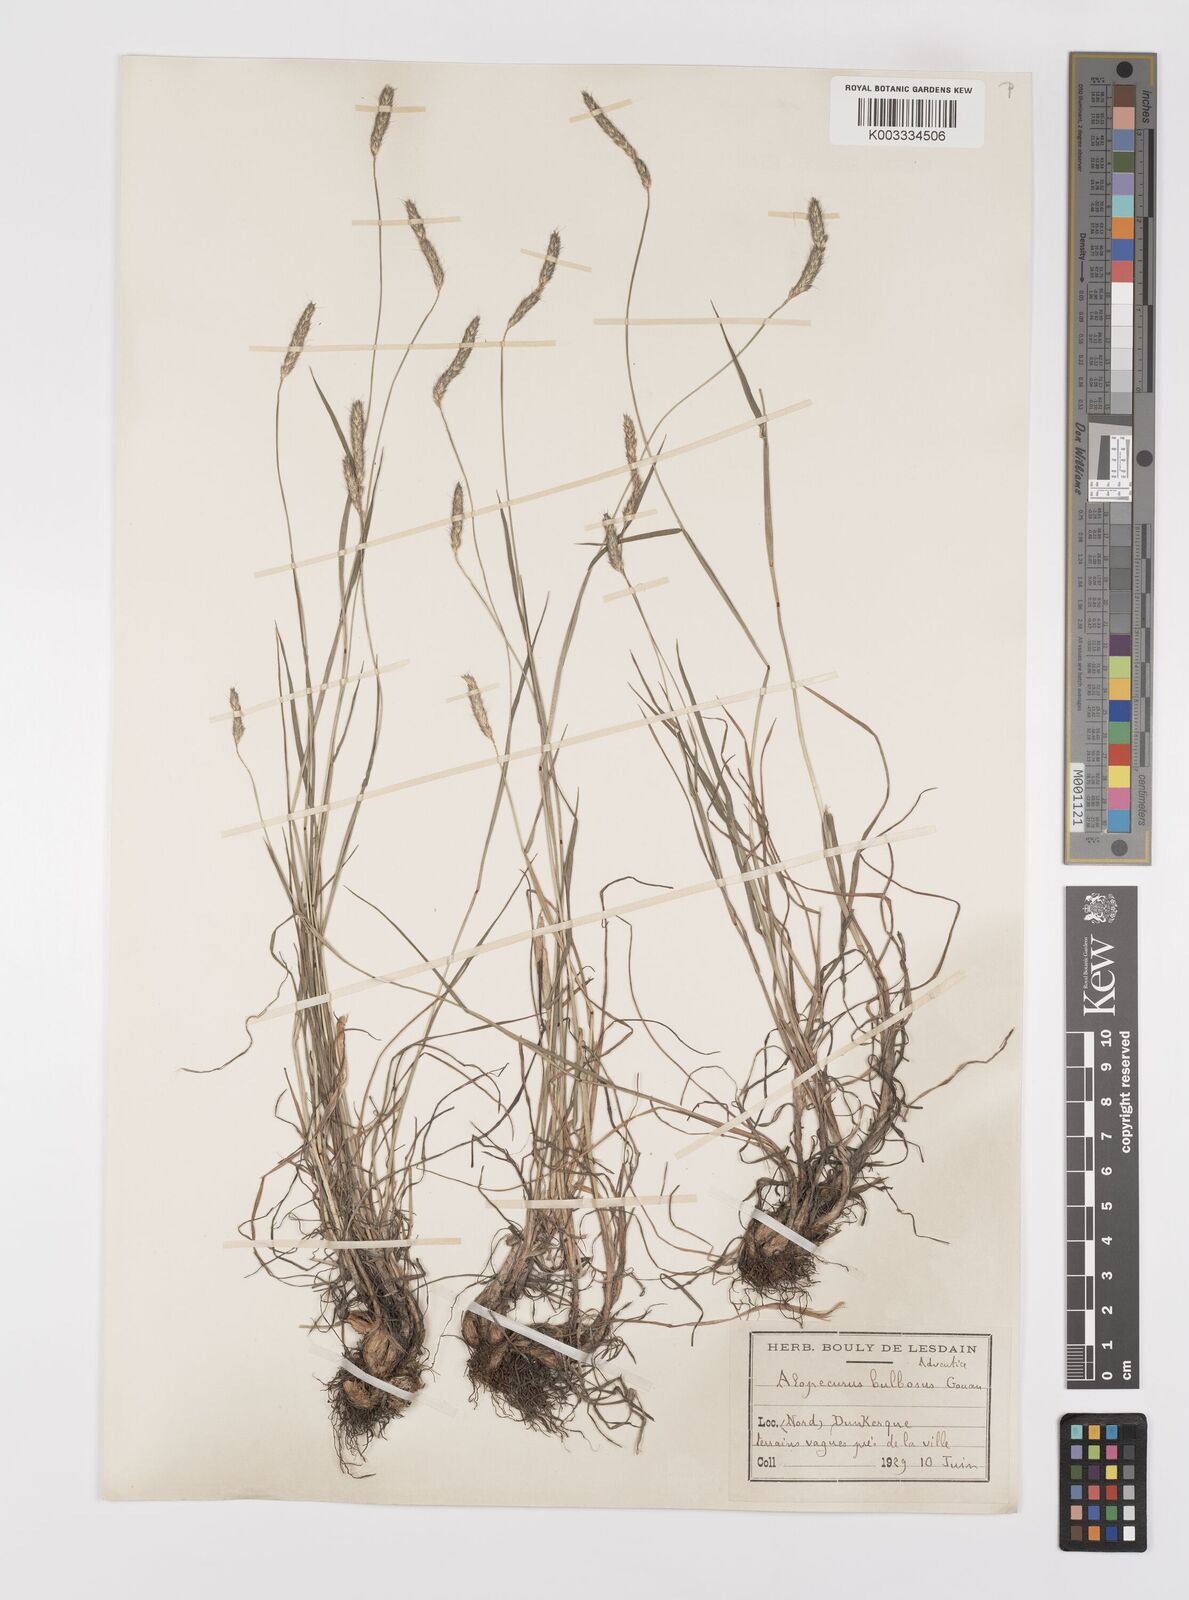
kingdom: Plantae
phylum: Tracheophyta
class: Liliopsida
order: Poales
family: Poaceae
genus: Alopecurus
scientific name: Alopecurus bulbosus
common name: Bulbous foxtail
